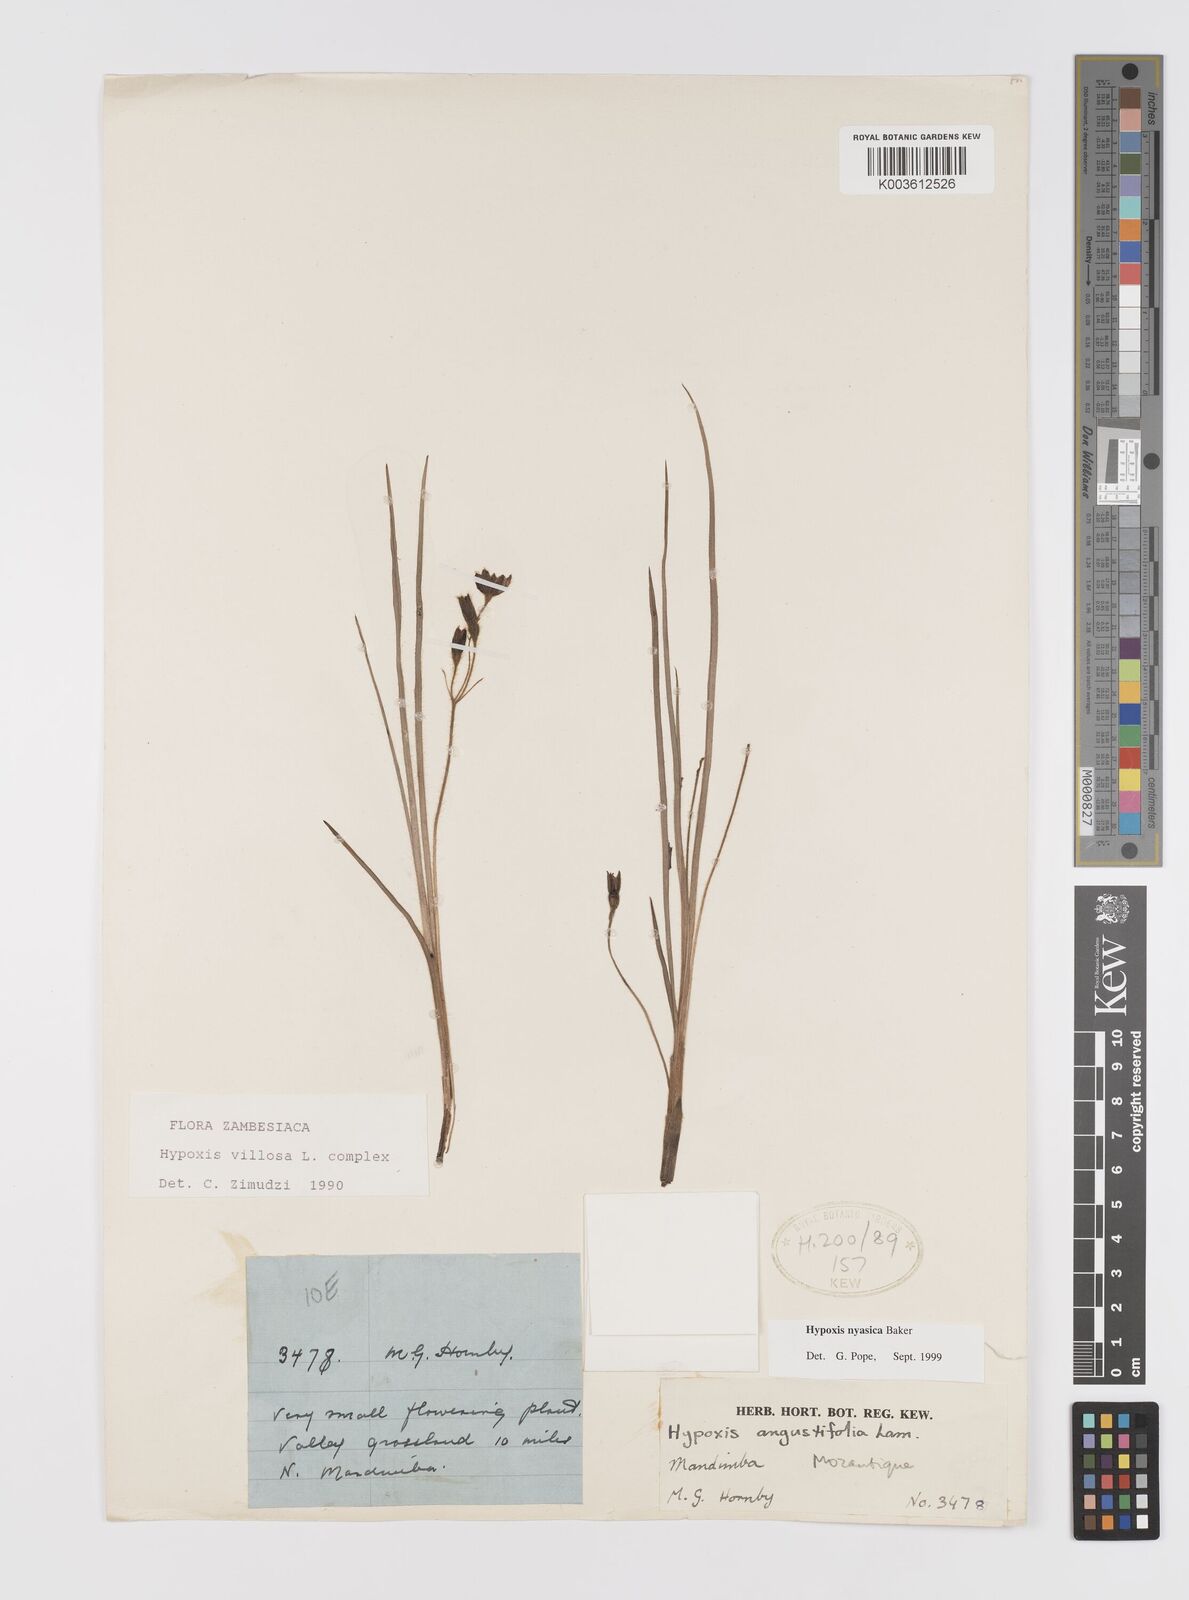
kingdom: Plantae
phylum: Tracheophyta
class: Liliopsida
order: Asparagales
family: Hypoxidaceae
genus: Hypoxis
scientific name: Hypoxis nyasica
